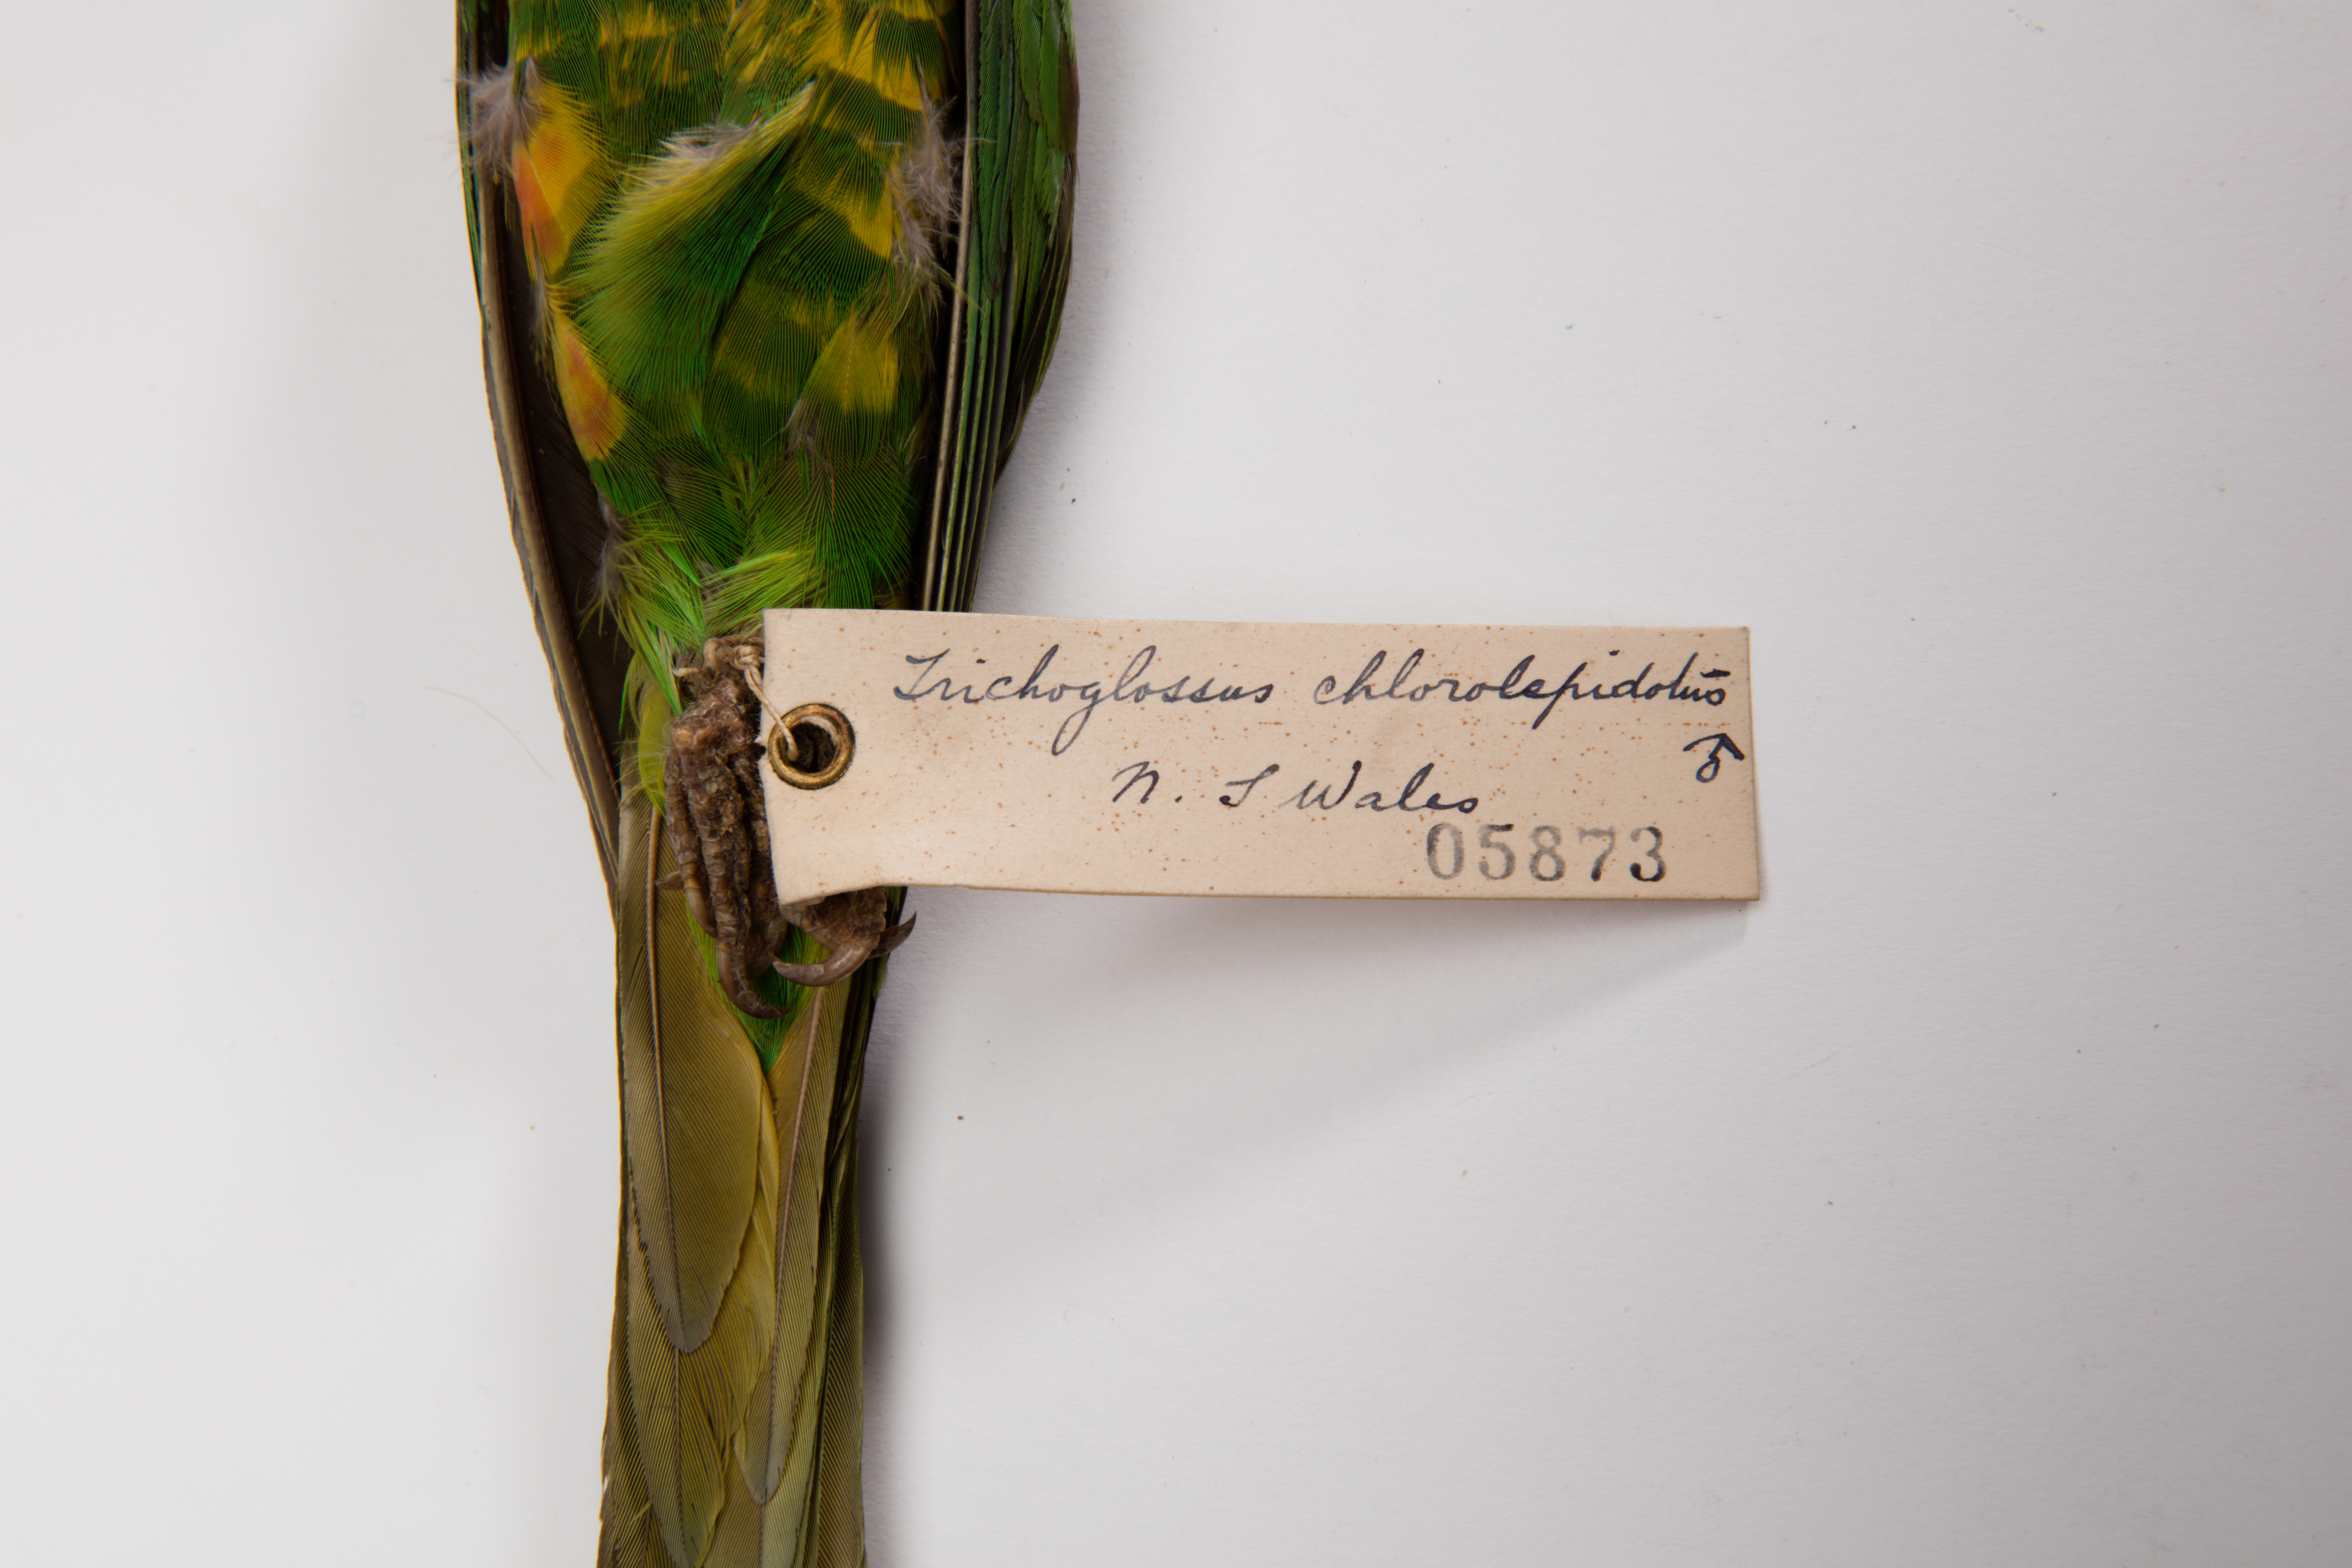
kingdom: Animalia
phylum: Chordata
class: Aves
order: Psittaciformes
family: Psittacidae
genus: Trichoglossus
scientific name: Trichoglossus chlorolepidotus
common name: Scaly-breasted lorikeet
